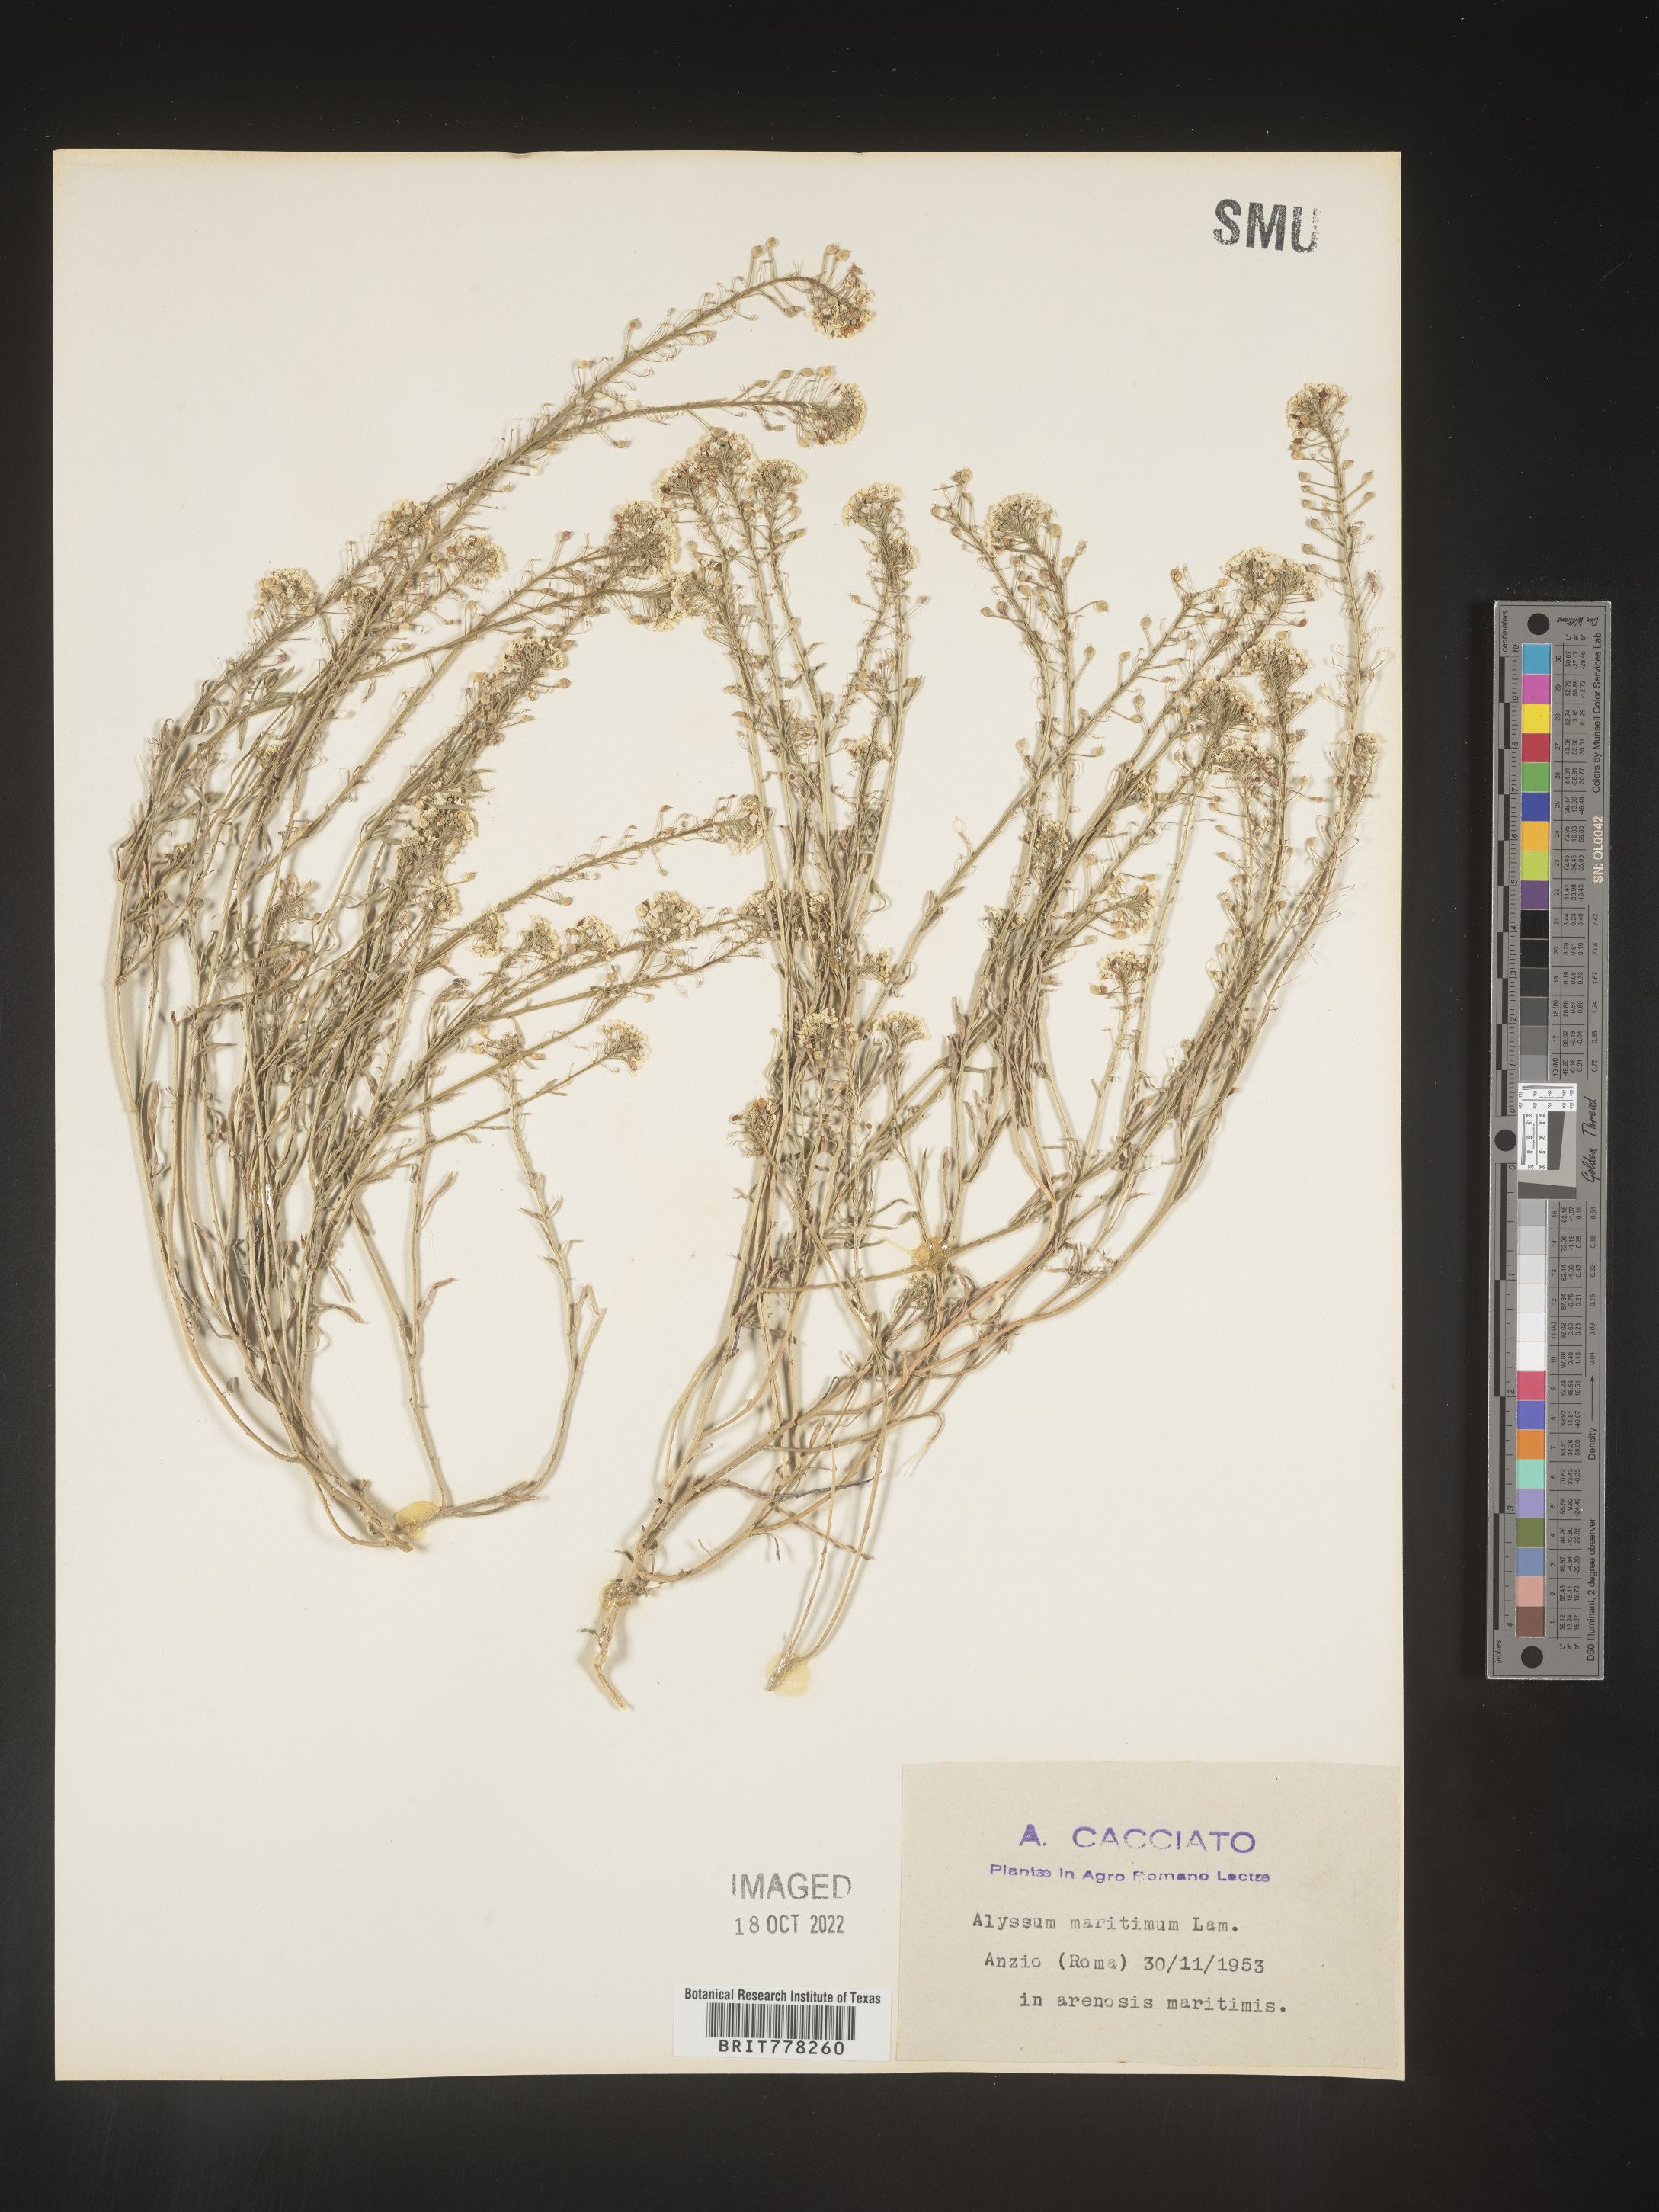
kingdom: Plantae
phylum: Tracheophyta
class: Magnoliopsida
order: Brassicales
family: Brassicaceae
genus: Lobularia
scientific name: Lobularia
